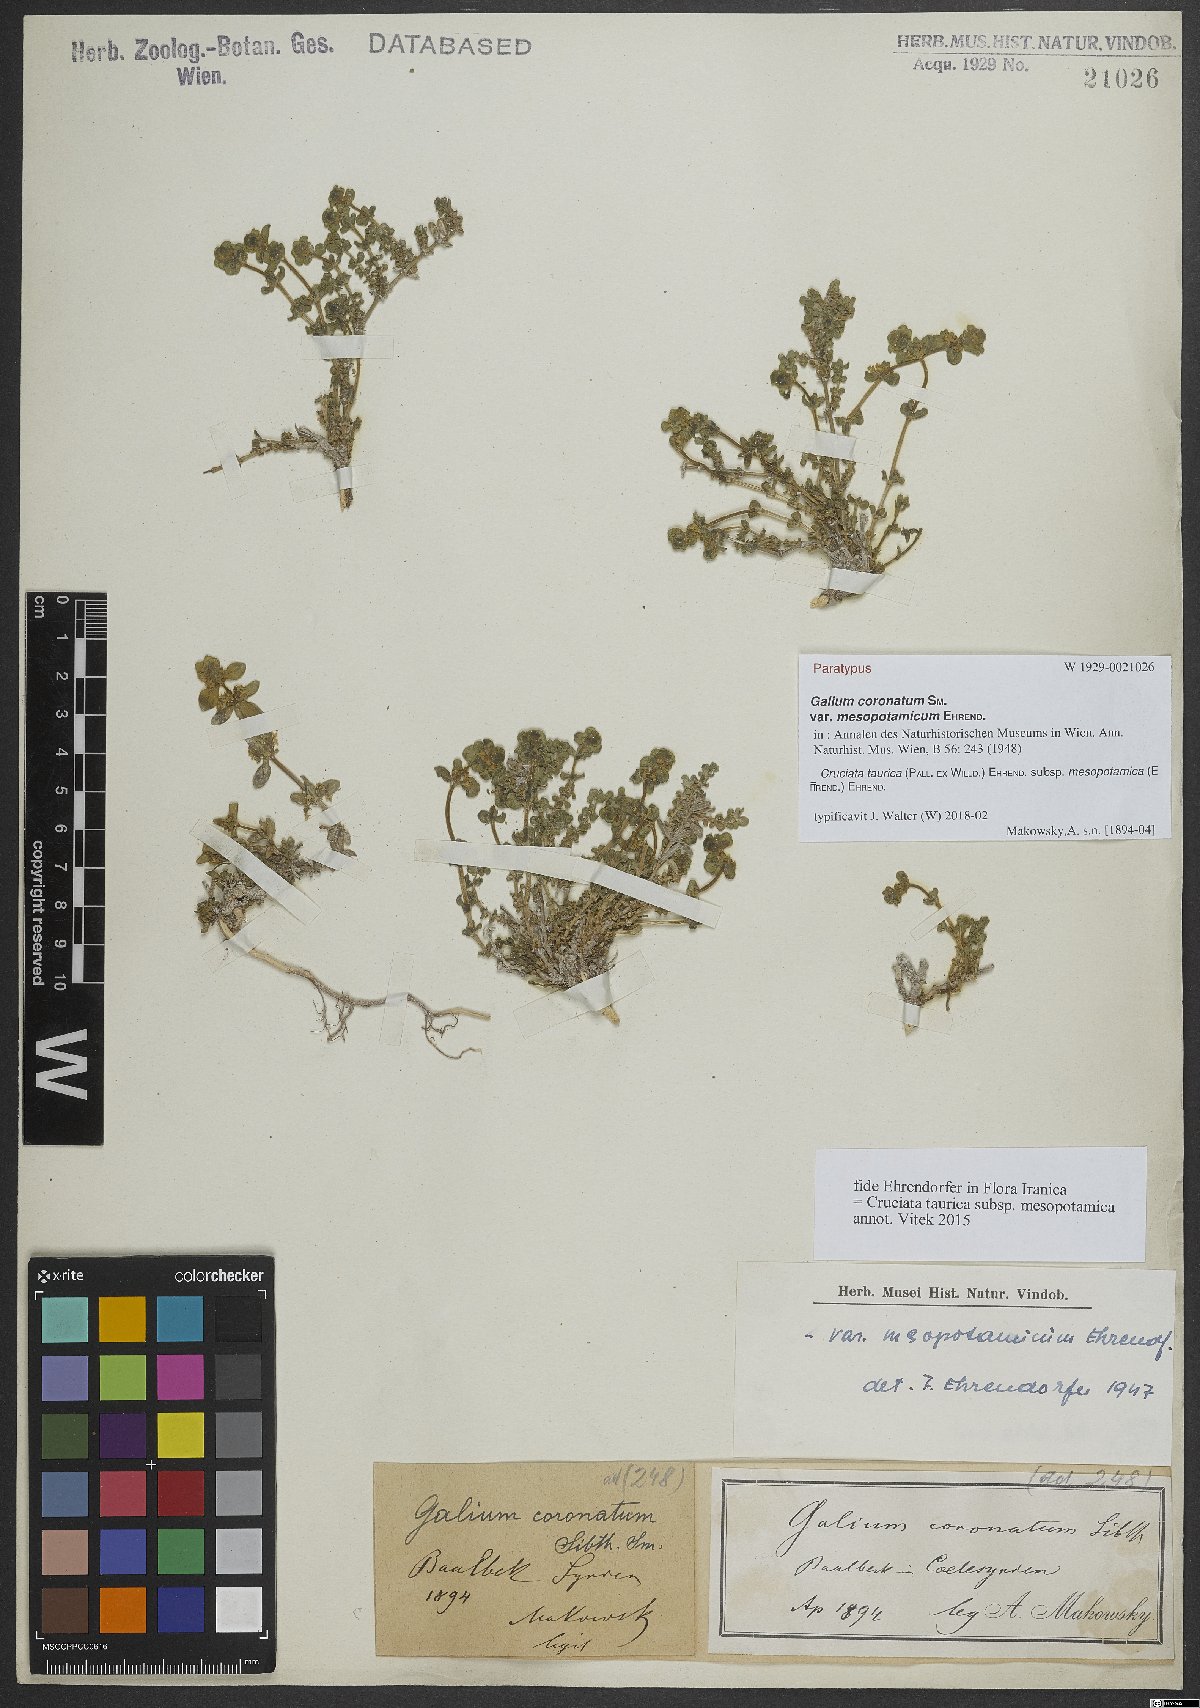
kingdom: Plantae
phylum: Tracheophyta
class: Magnoliopsida
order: Gentianales
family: Rubiaceae
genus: Cruciata
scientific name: Cruciata taurica
